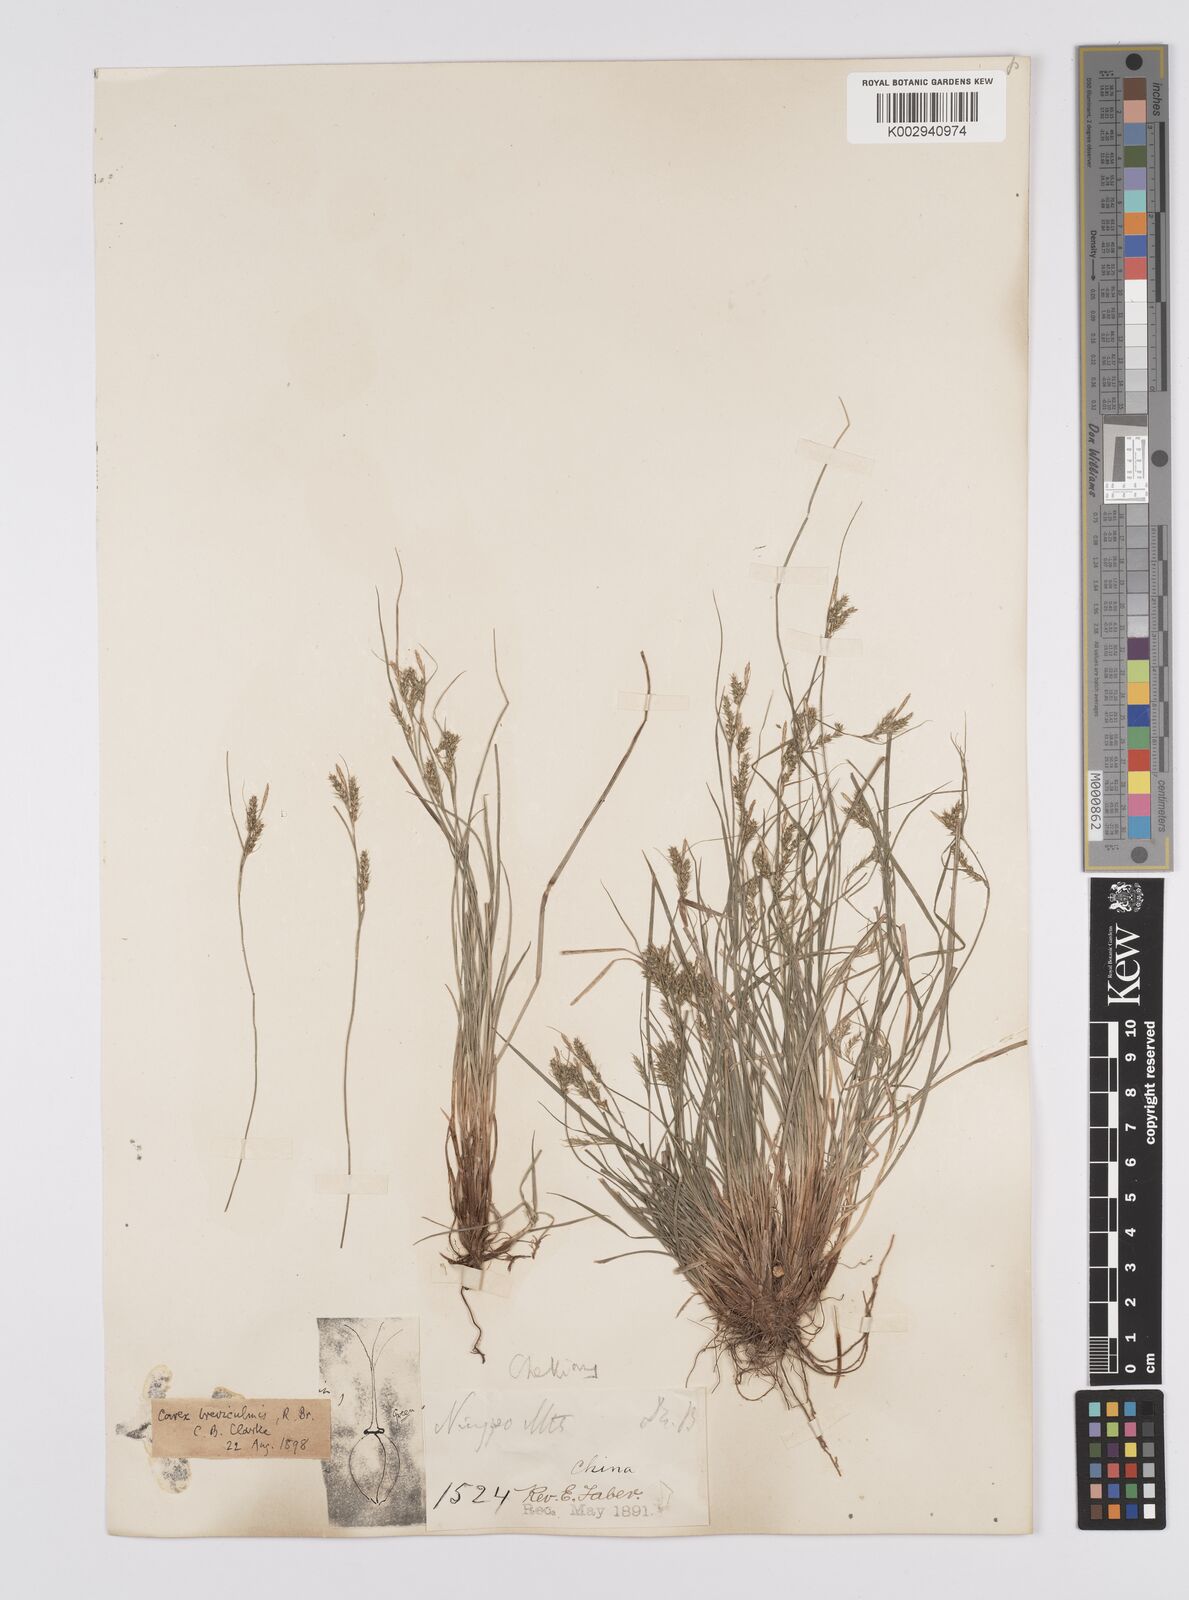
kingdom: Plantae
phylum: Tracheophyta
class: Liliopsida
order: Poales
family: Cyperaceae
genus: Carex
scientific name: Carex breviculmis
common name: Asian shortstem sedge
